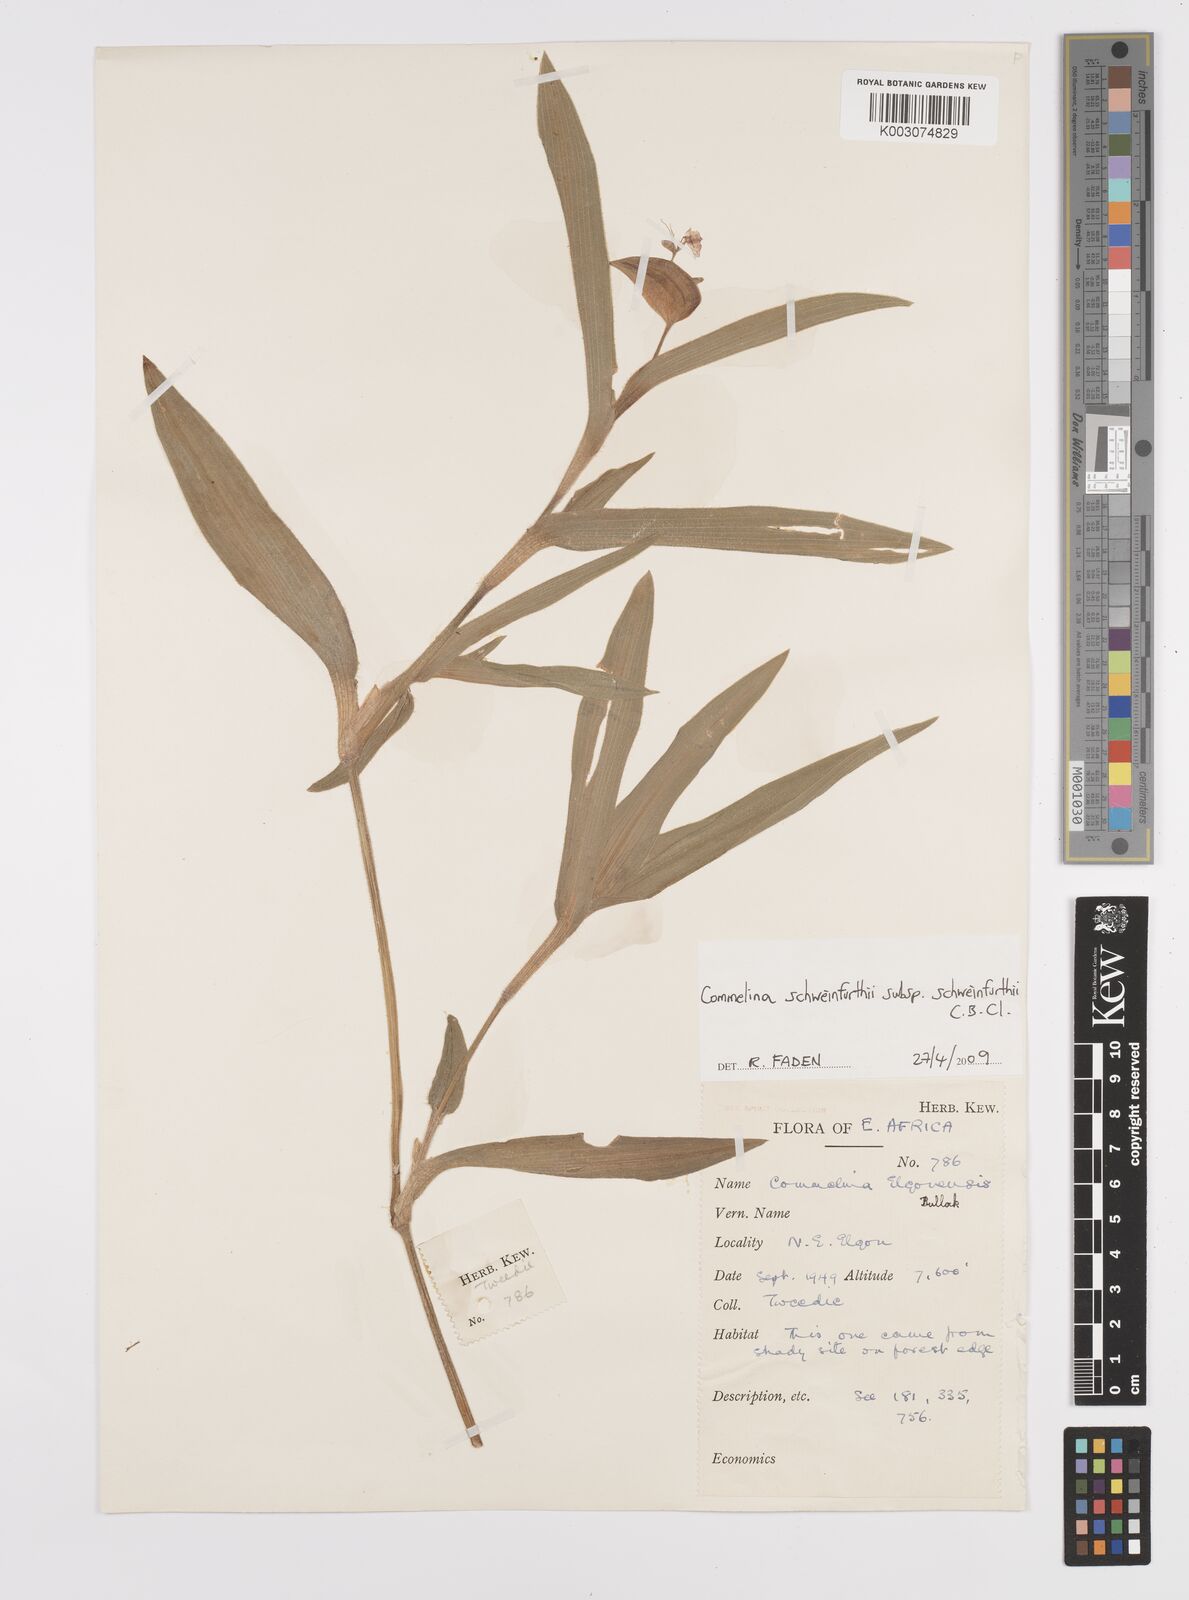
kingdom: Plantae
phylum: Tracheophyta
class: Liliopsida
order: Commelinales
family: Commelinaceae
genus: Commelina
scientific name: Commelina schweinfurthii
